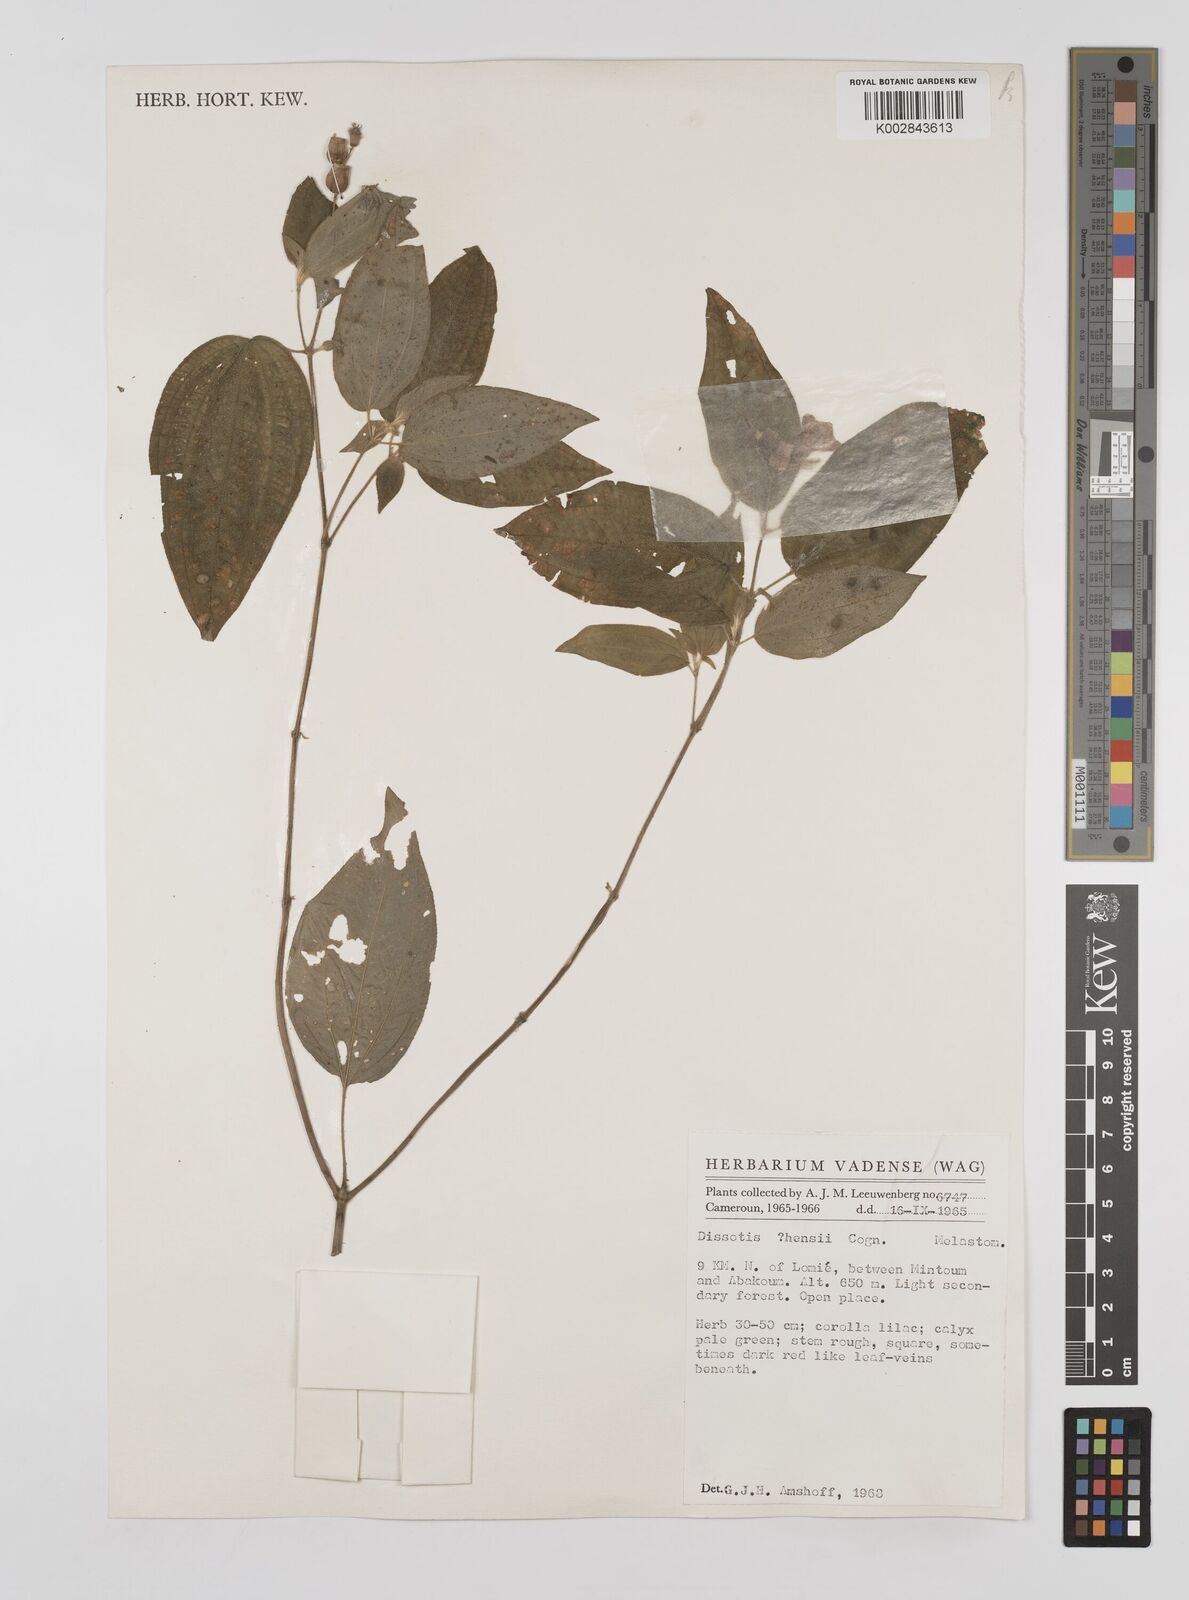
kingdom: Plantae
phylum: Tracheophyta
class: Magnoliopsida
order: Myrtales
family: Melastomataceae
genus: Dupineta
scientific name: Dupineta multiflora
